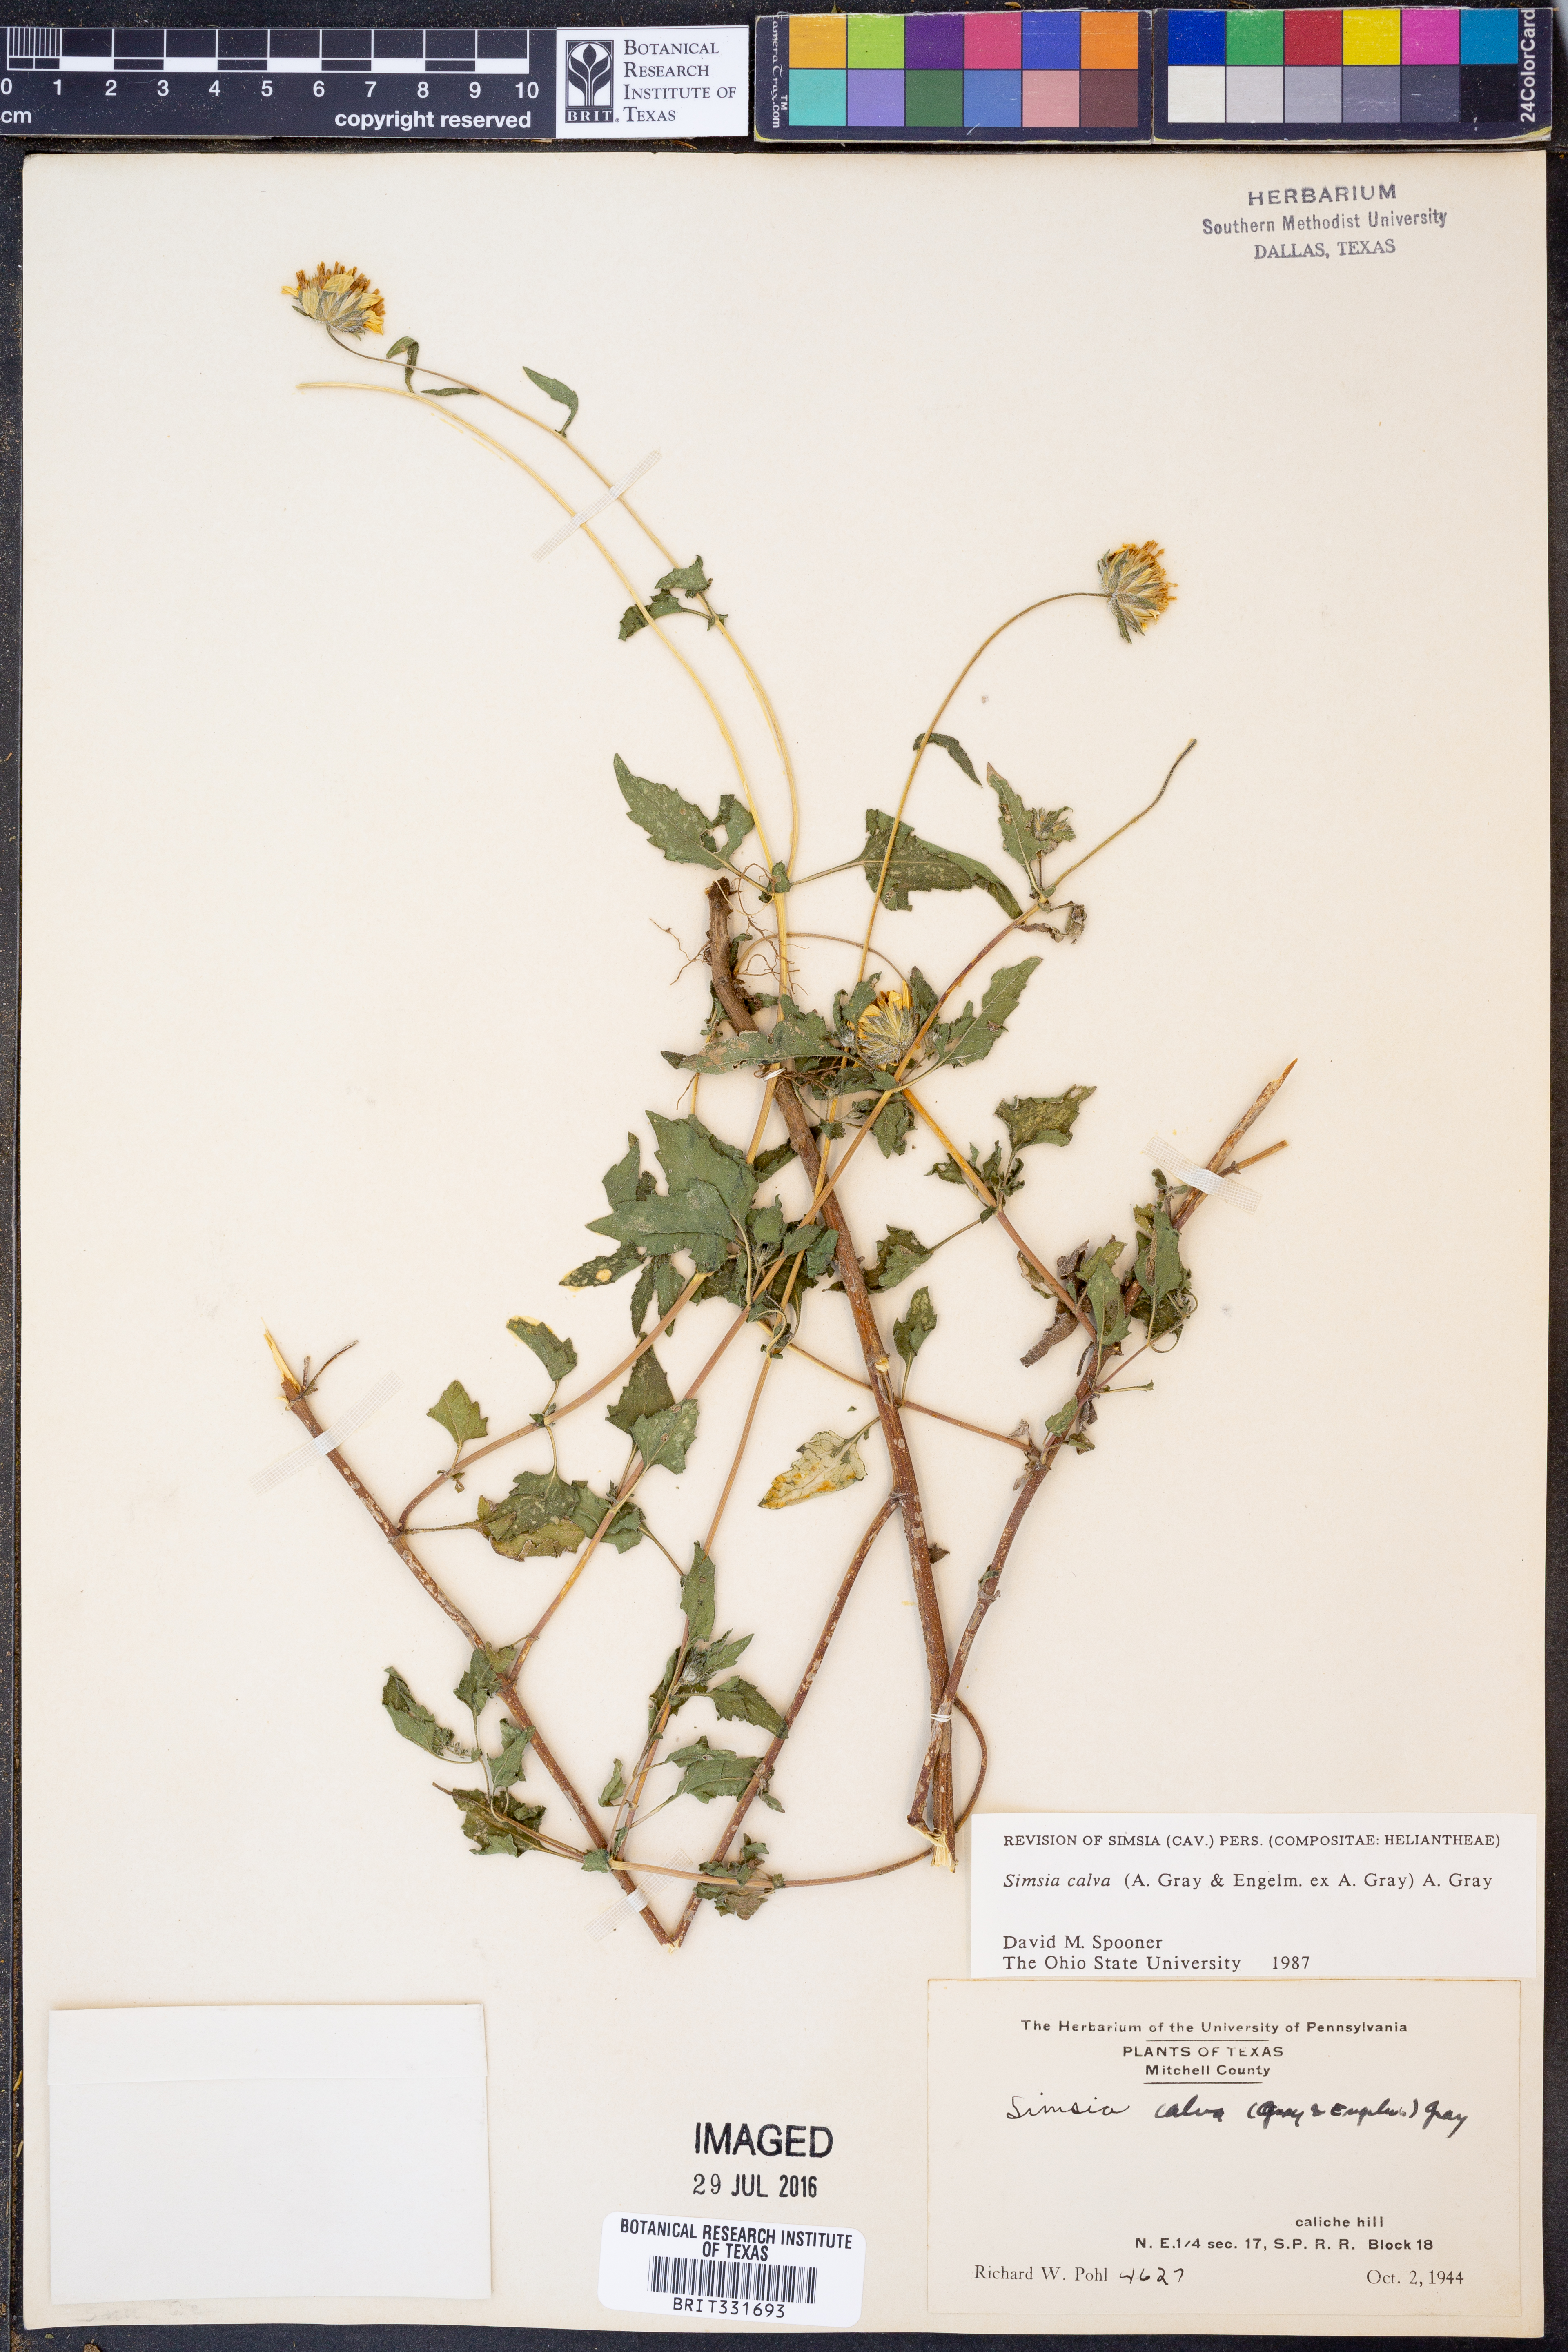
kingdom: Plantae
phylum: Tracheophyta
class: Magnoliopsida
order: Asterales
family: Asteraceae
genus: Simsia
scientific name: Simsia calva
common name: Awnless bush-sunflower
